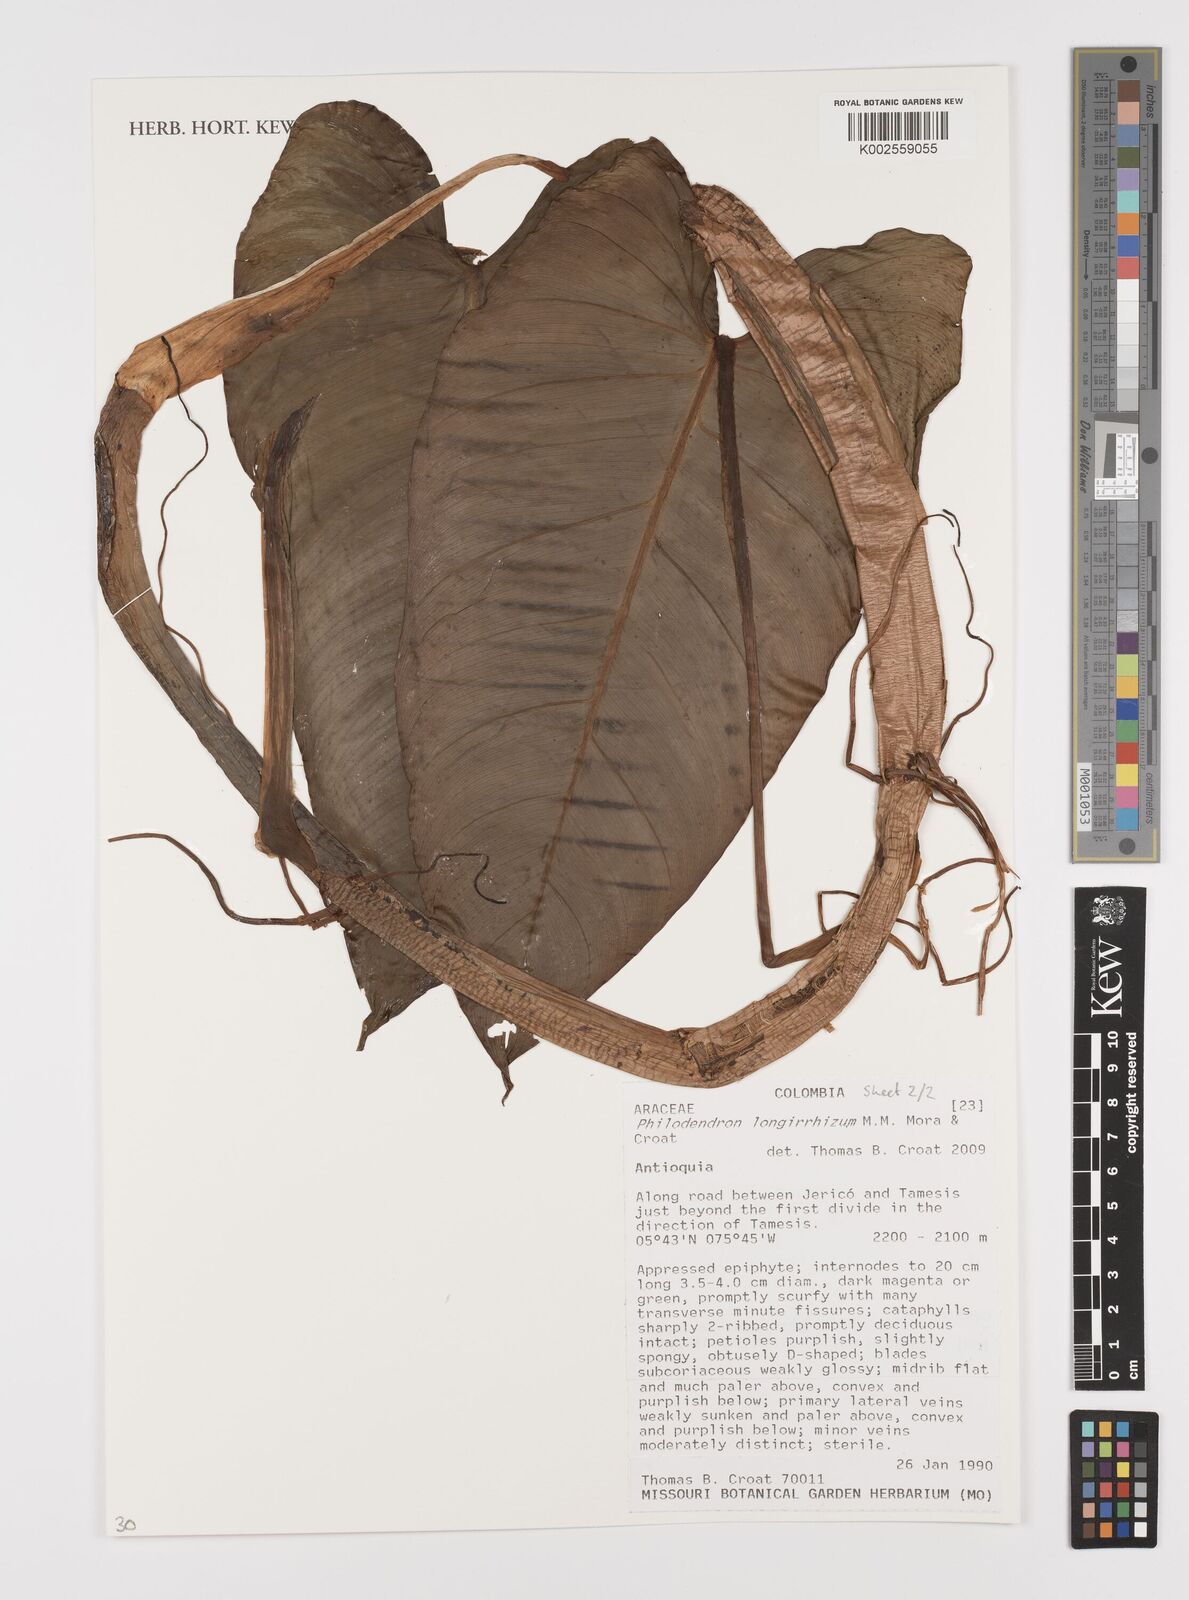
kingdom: Plantae
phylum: Tracheophyta
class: Liliopsida
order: Alismatales
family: Araceae
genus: Philodendron
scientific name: Philodendron longirrhizum
